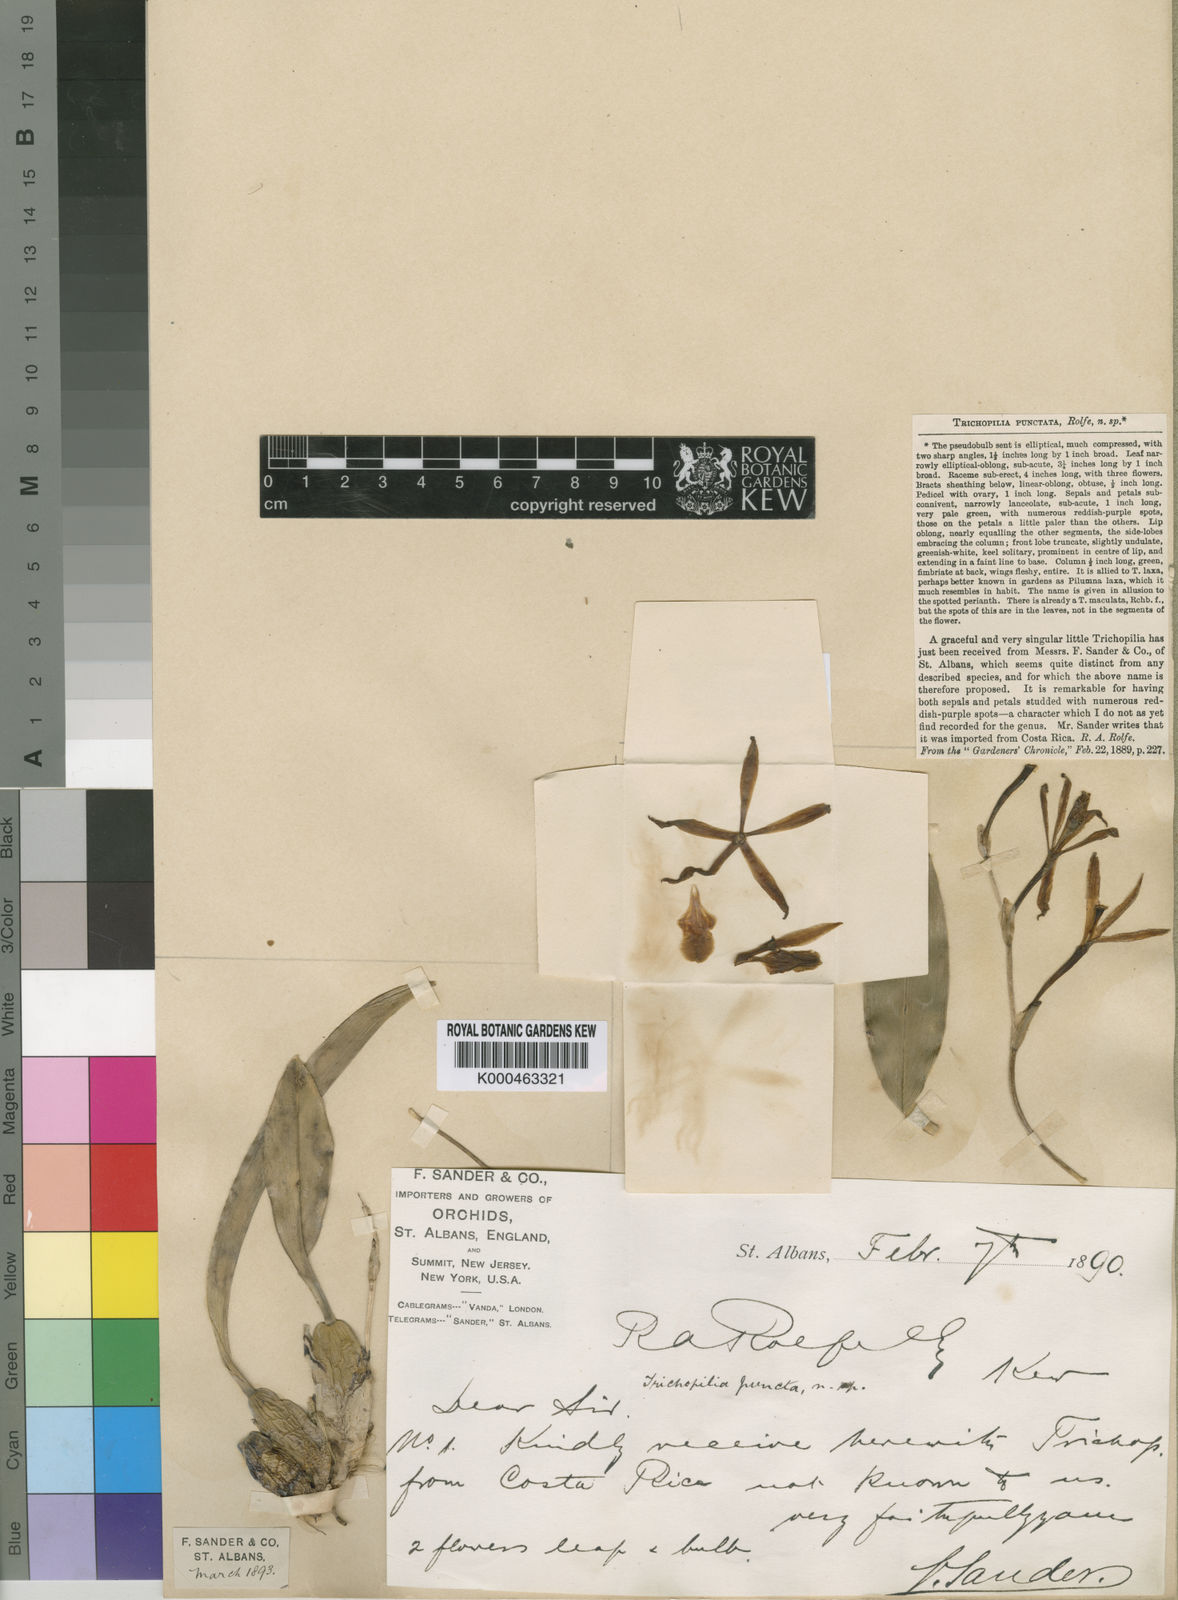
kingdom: Plantae
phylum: Tracheophyta
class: Liliopsida
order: Asparagales
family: Orchidaceae
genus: Trichopilia
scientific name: Trichopilia punctata
